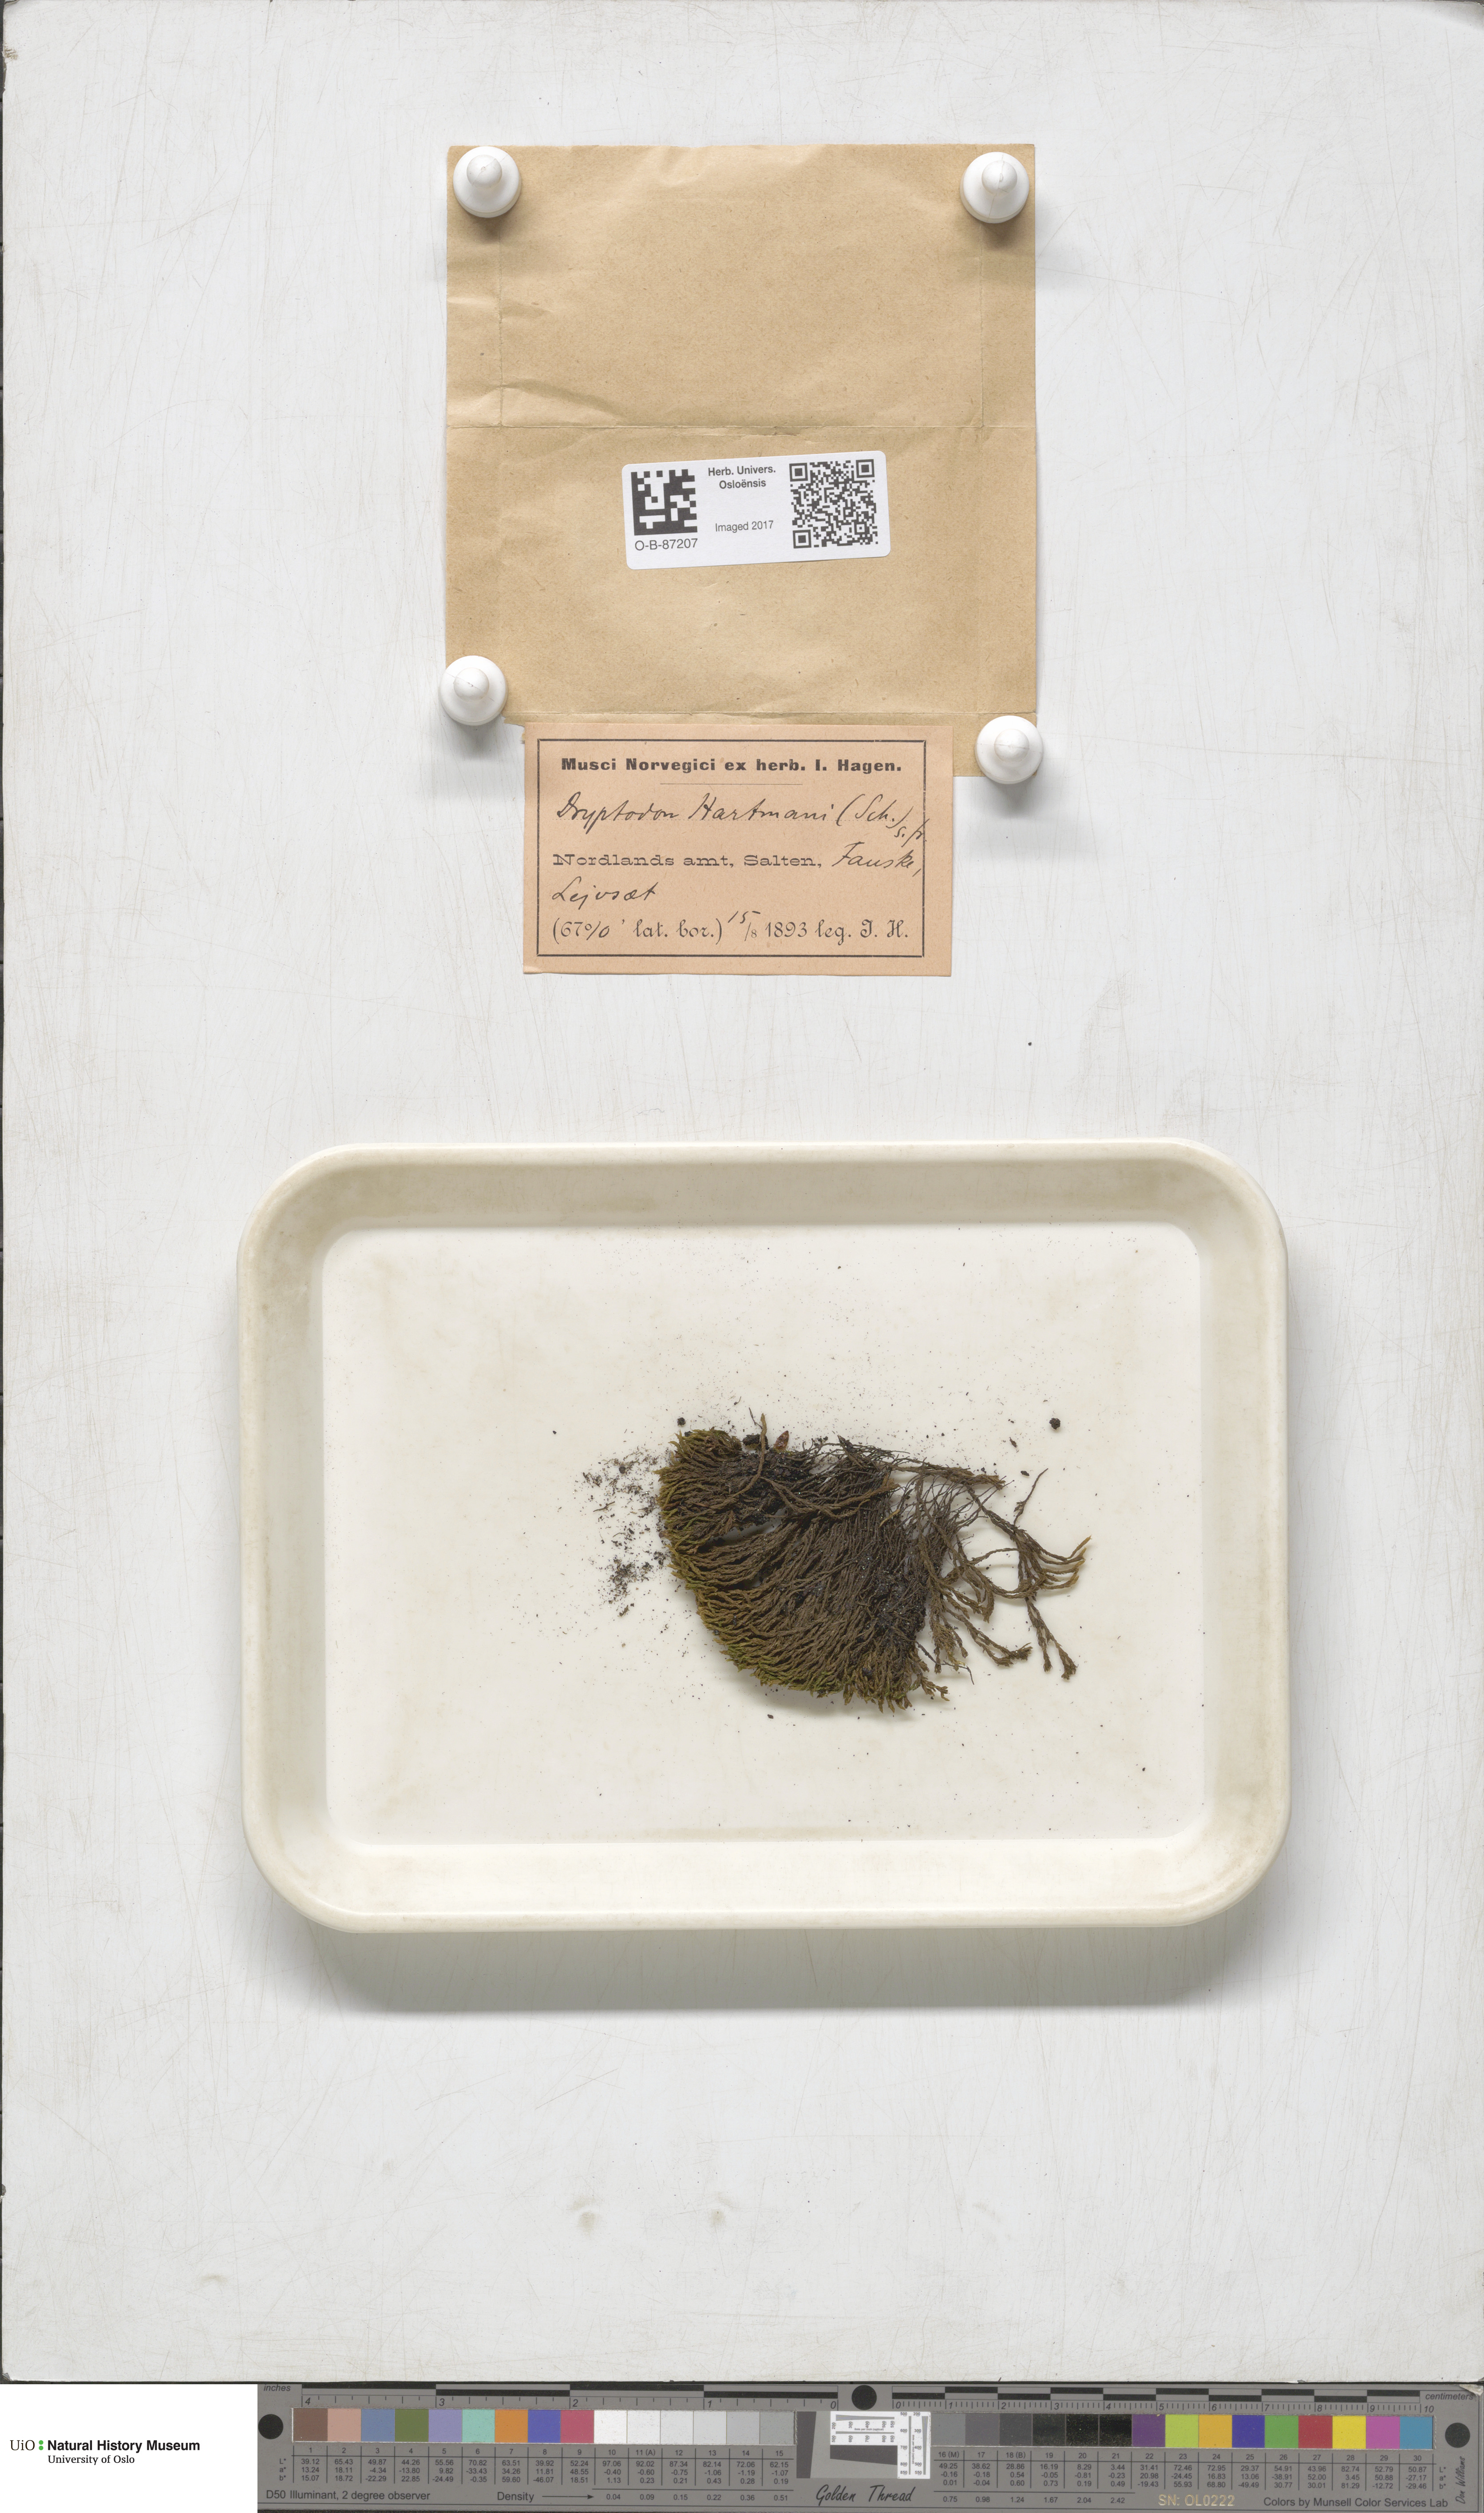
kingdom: Plantae
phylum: Bryophyta
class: Bryopsida
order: Grimmiales
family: Grimmiaceae
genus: Grimmia
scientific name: Grimmia hartmanii
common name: Hartman's grimmia
